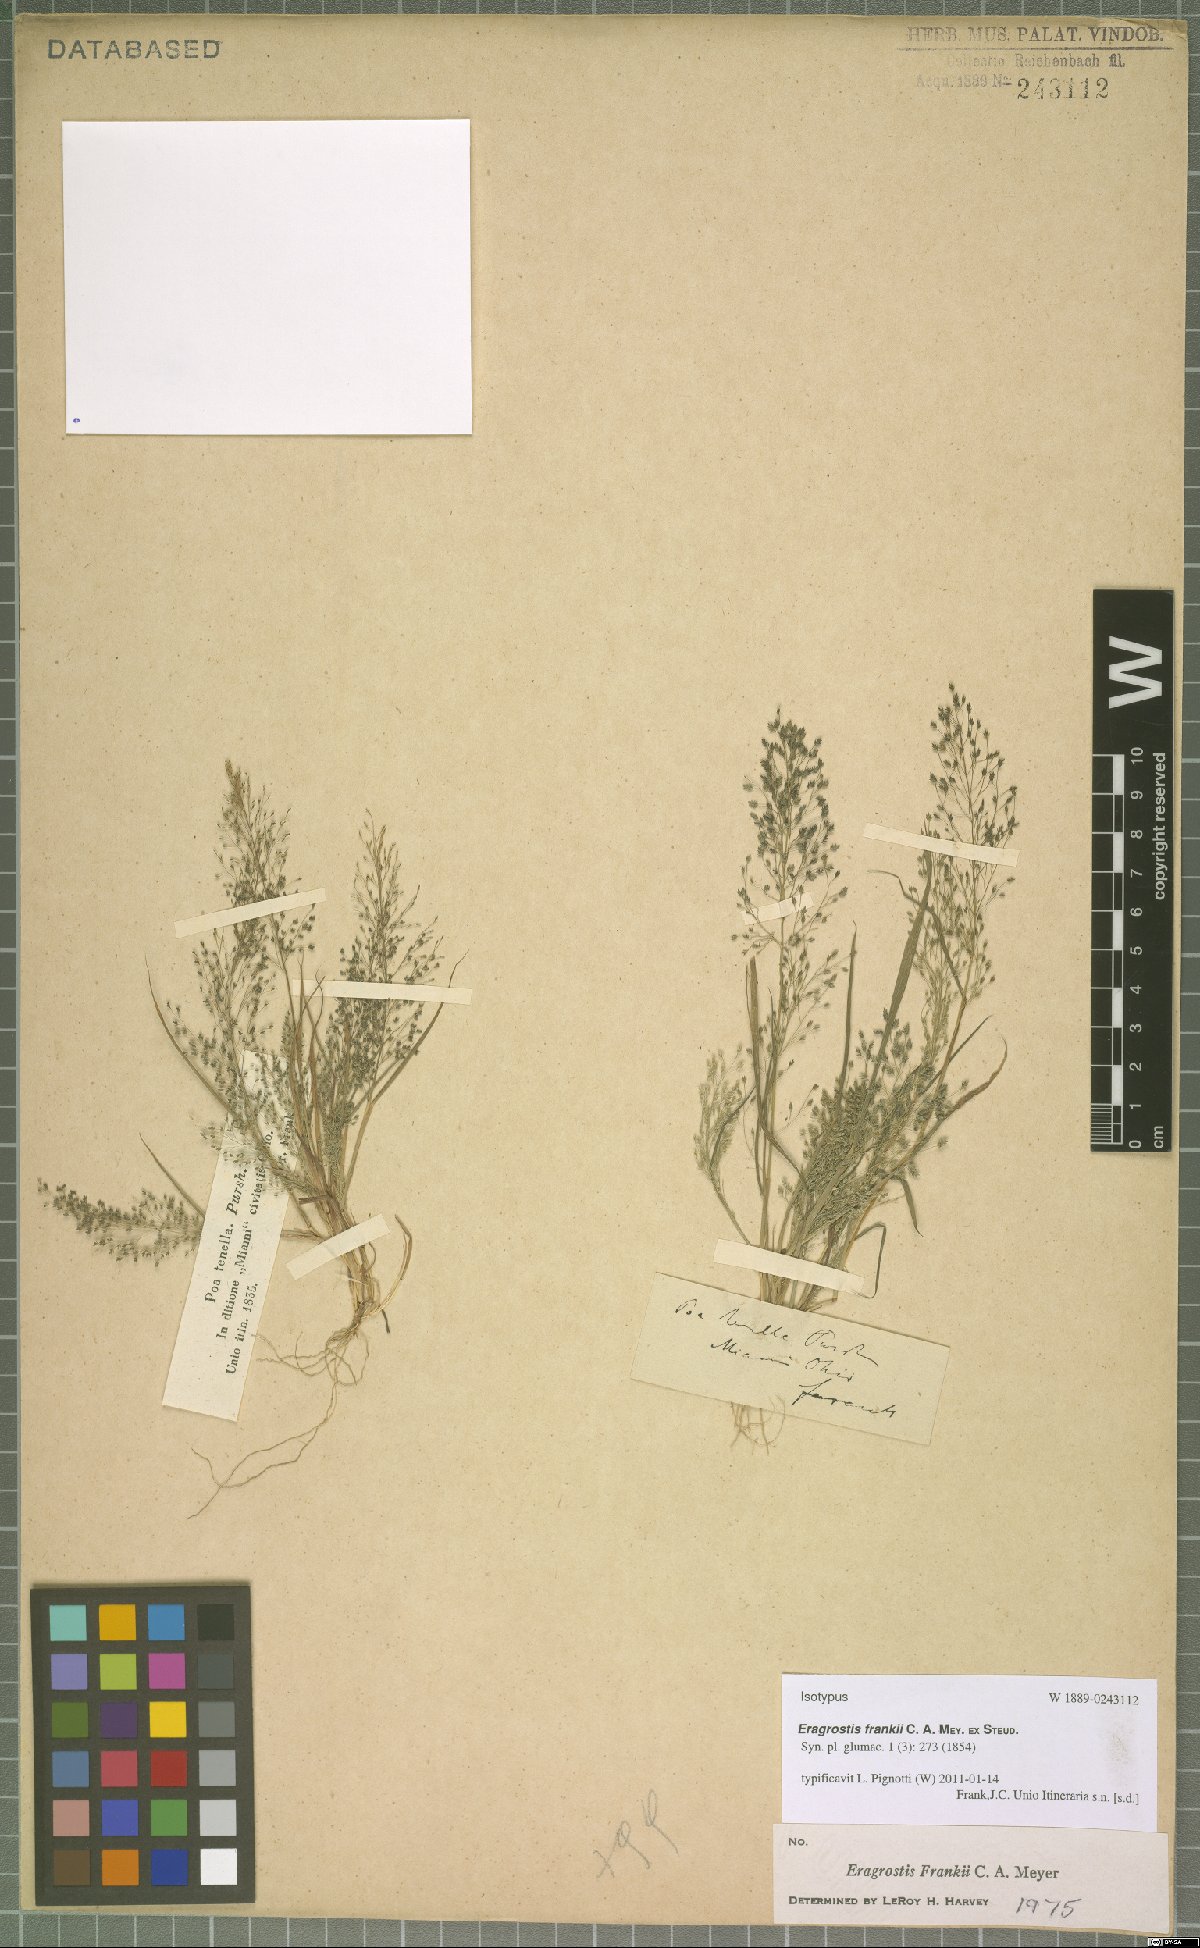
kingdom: Plantae
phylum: Tracheophyta
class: Liliopsida
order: Poales
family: Poaceae
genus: Eragrostis
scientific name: Eragrostis frankii
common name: Frank's lovegrass
